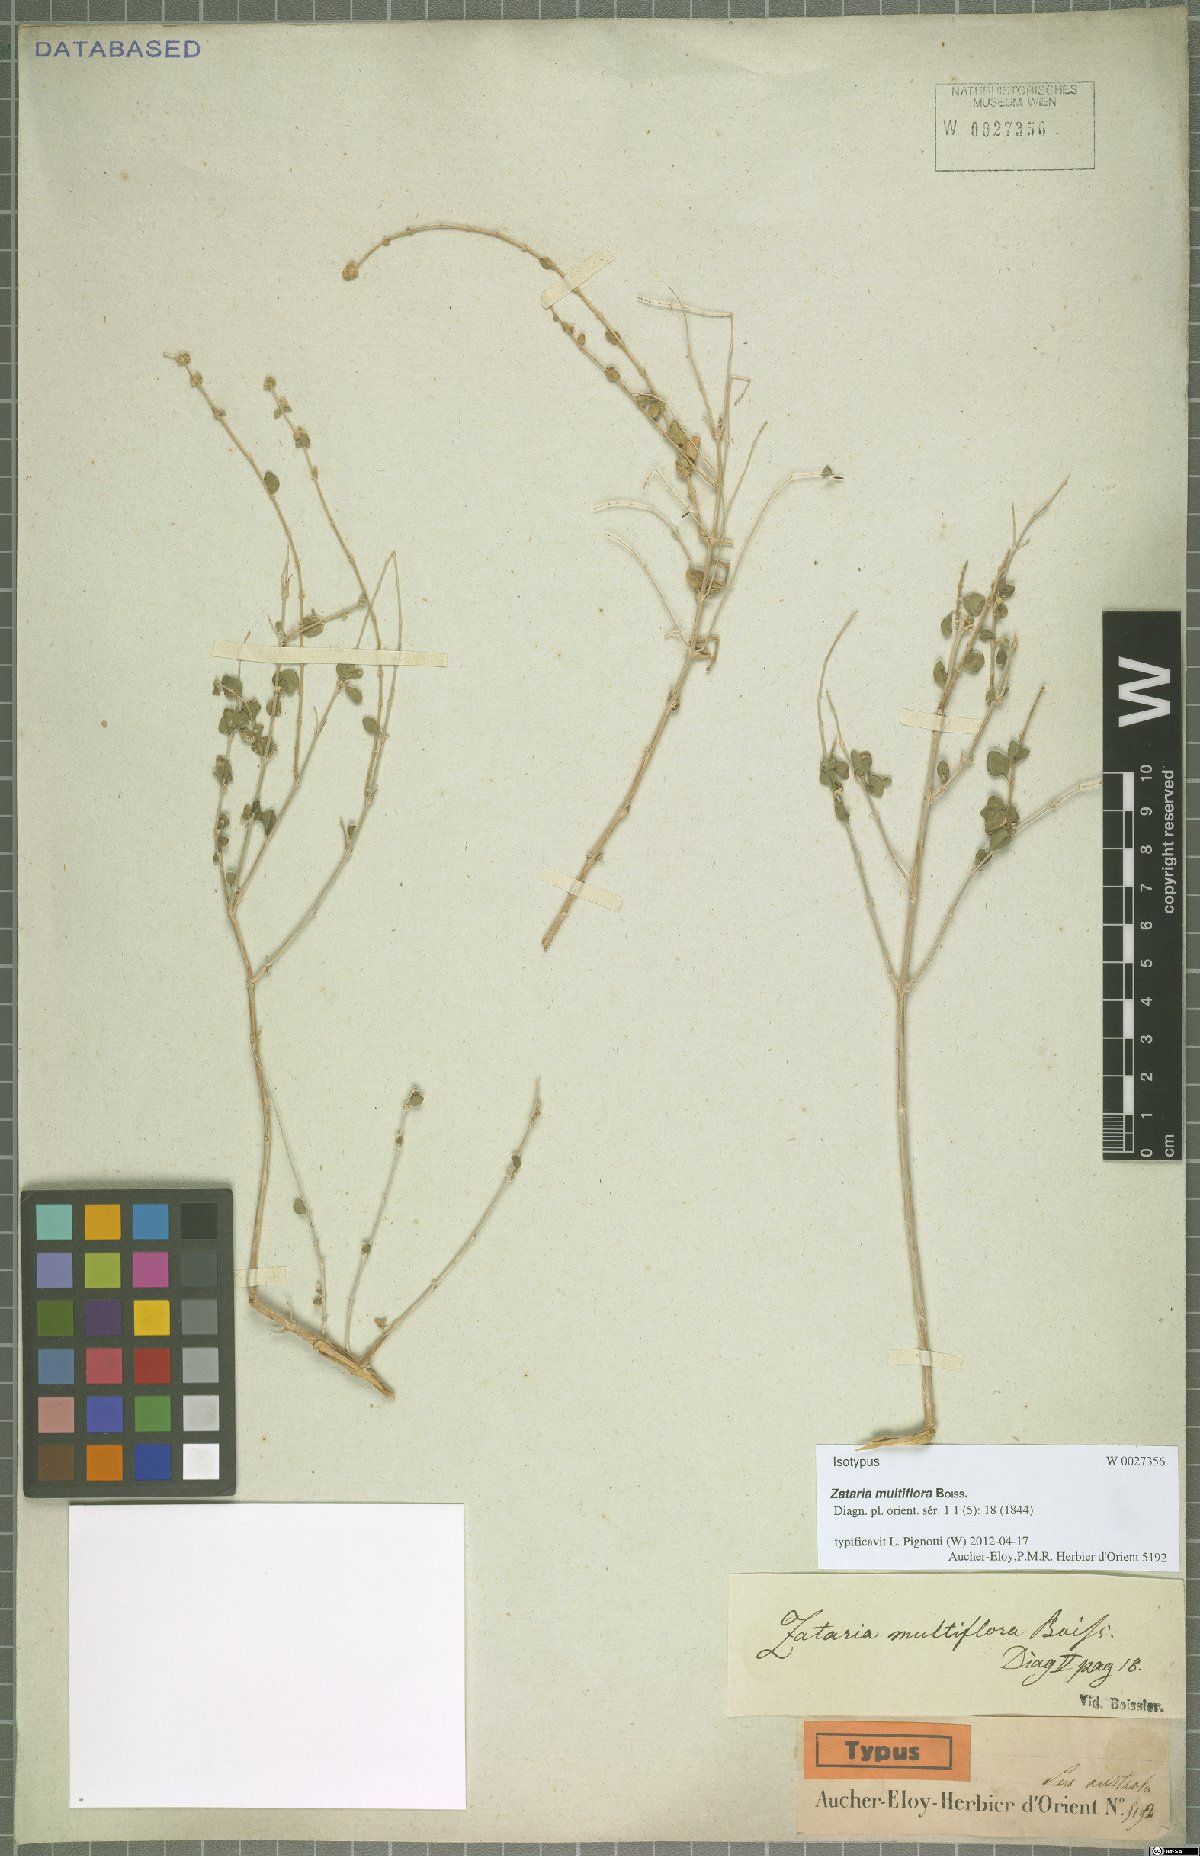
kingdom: Plantae
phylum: Tracheophyta
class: Magnoliopsida
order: Lamiales
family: Lamiaceae
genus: Zataria
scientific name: Zataria multiflora
